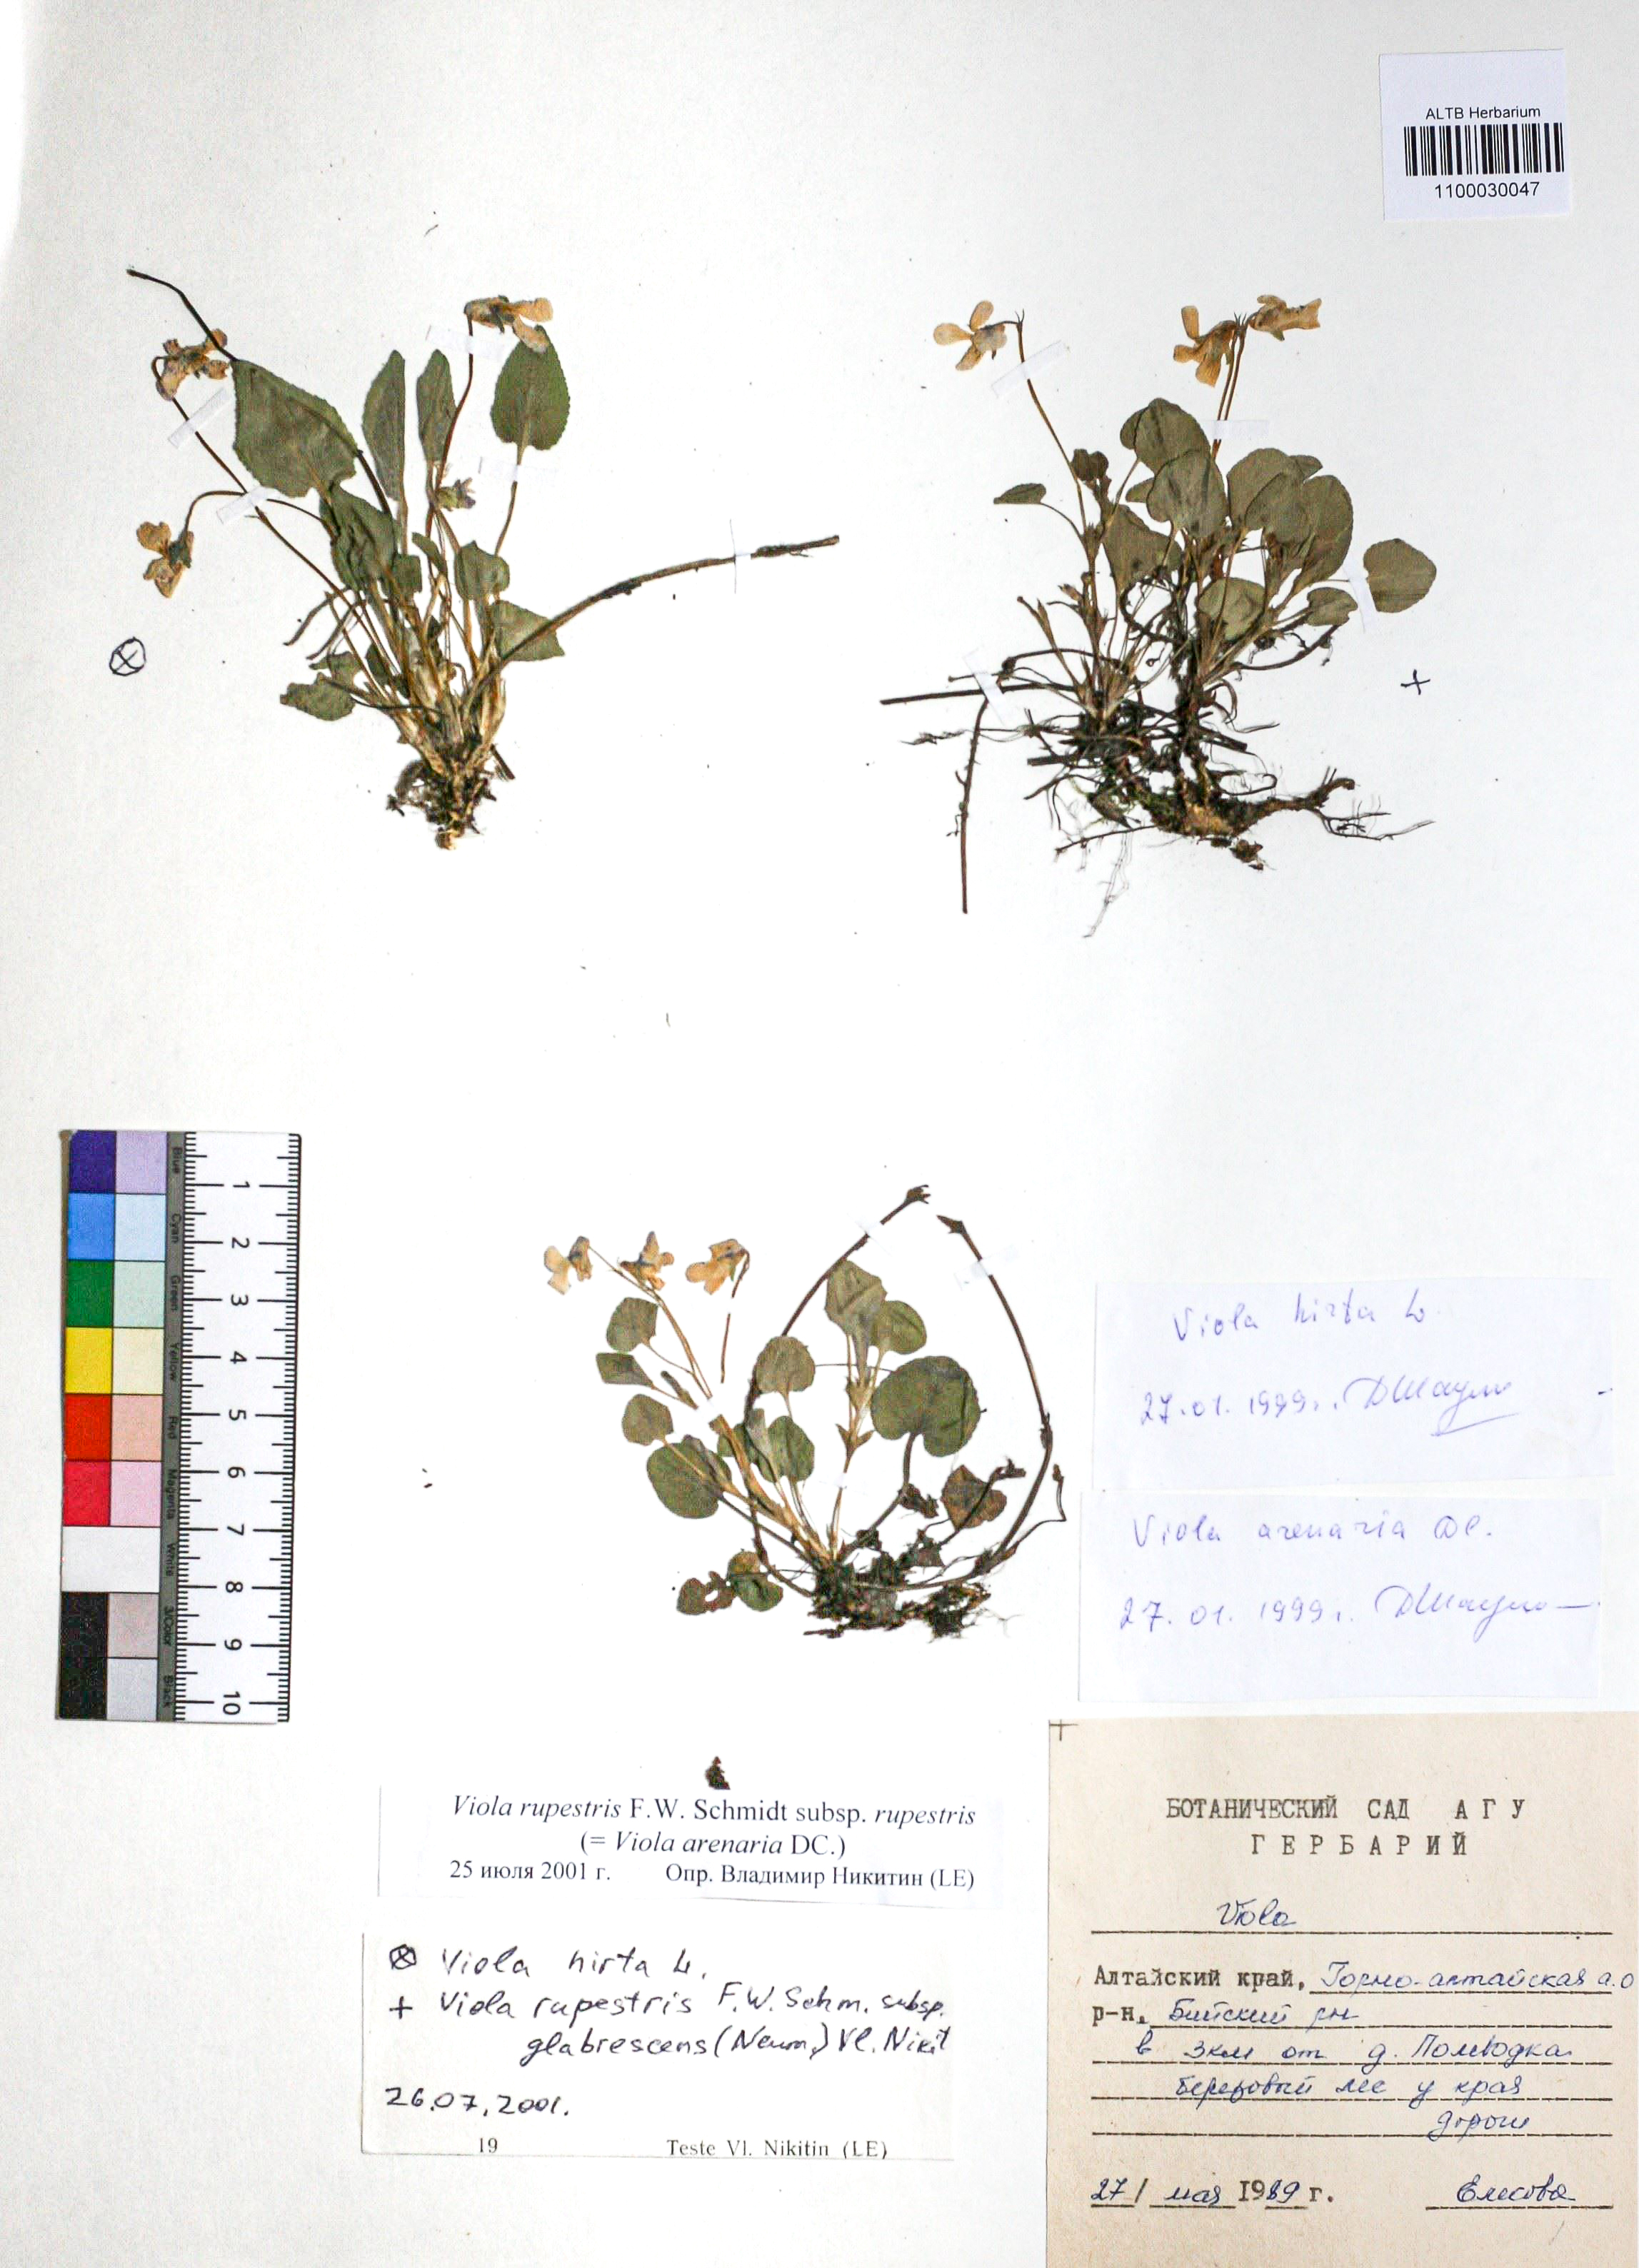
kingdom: Plantae
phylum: Tracheophyta
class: Magnoliopsida
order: Malpighiales
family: Violaceae
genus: Viola
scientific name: Viola rupestris
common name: Teesdale violet
